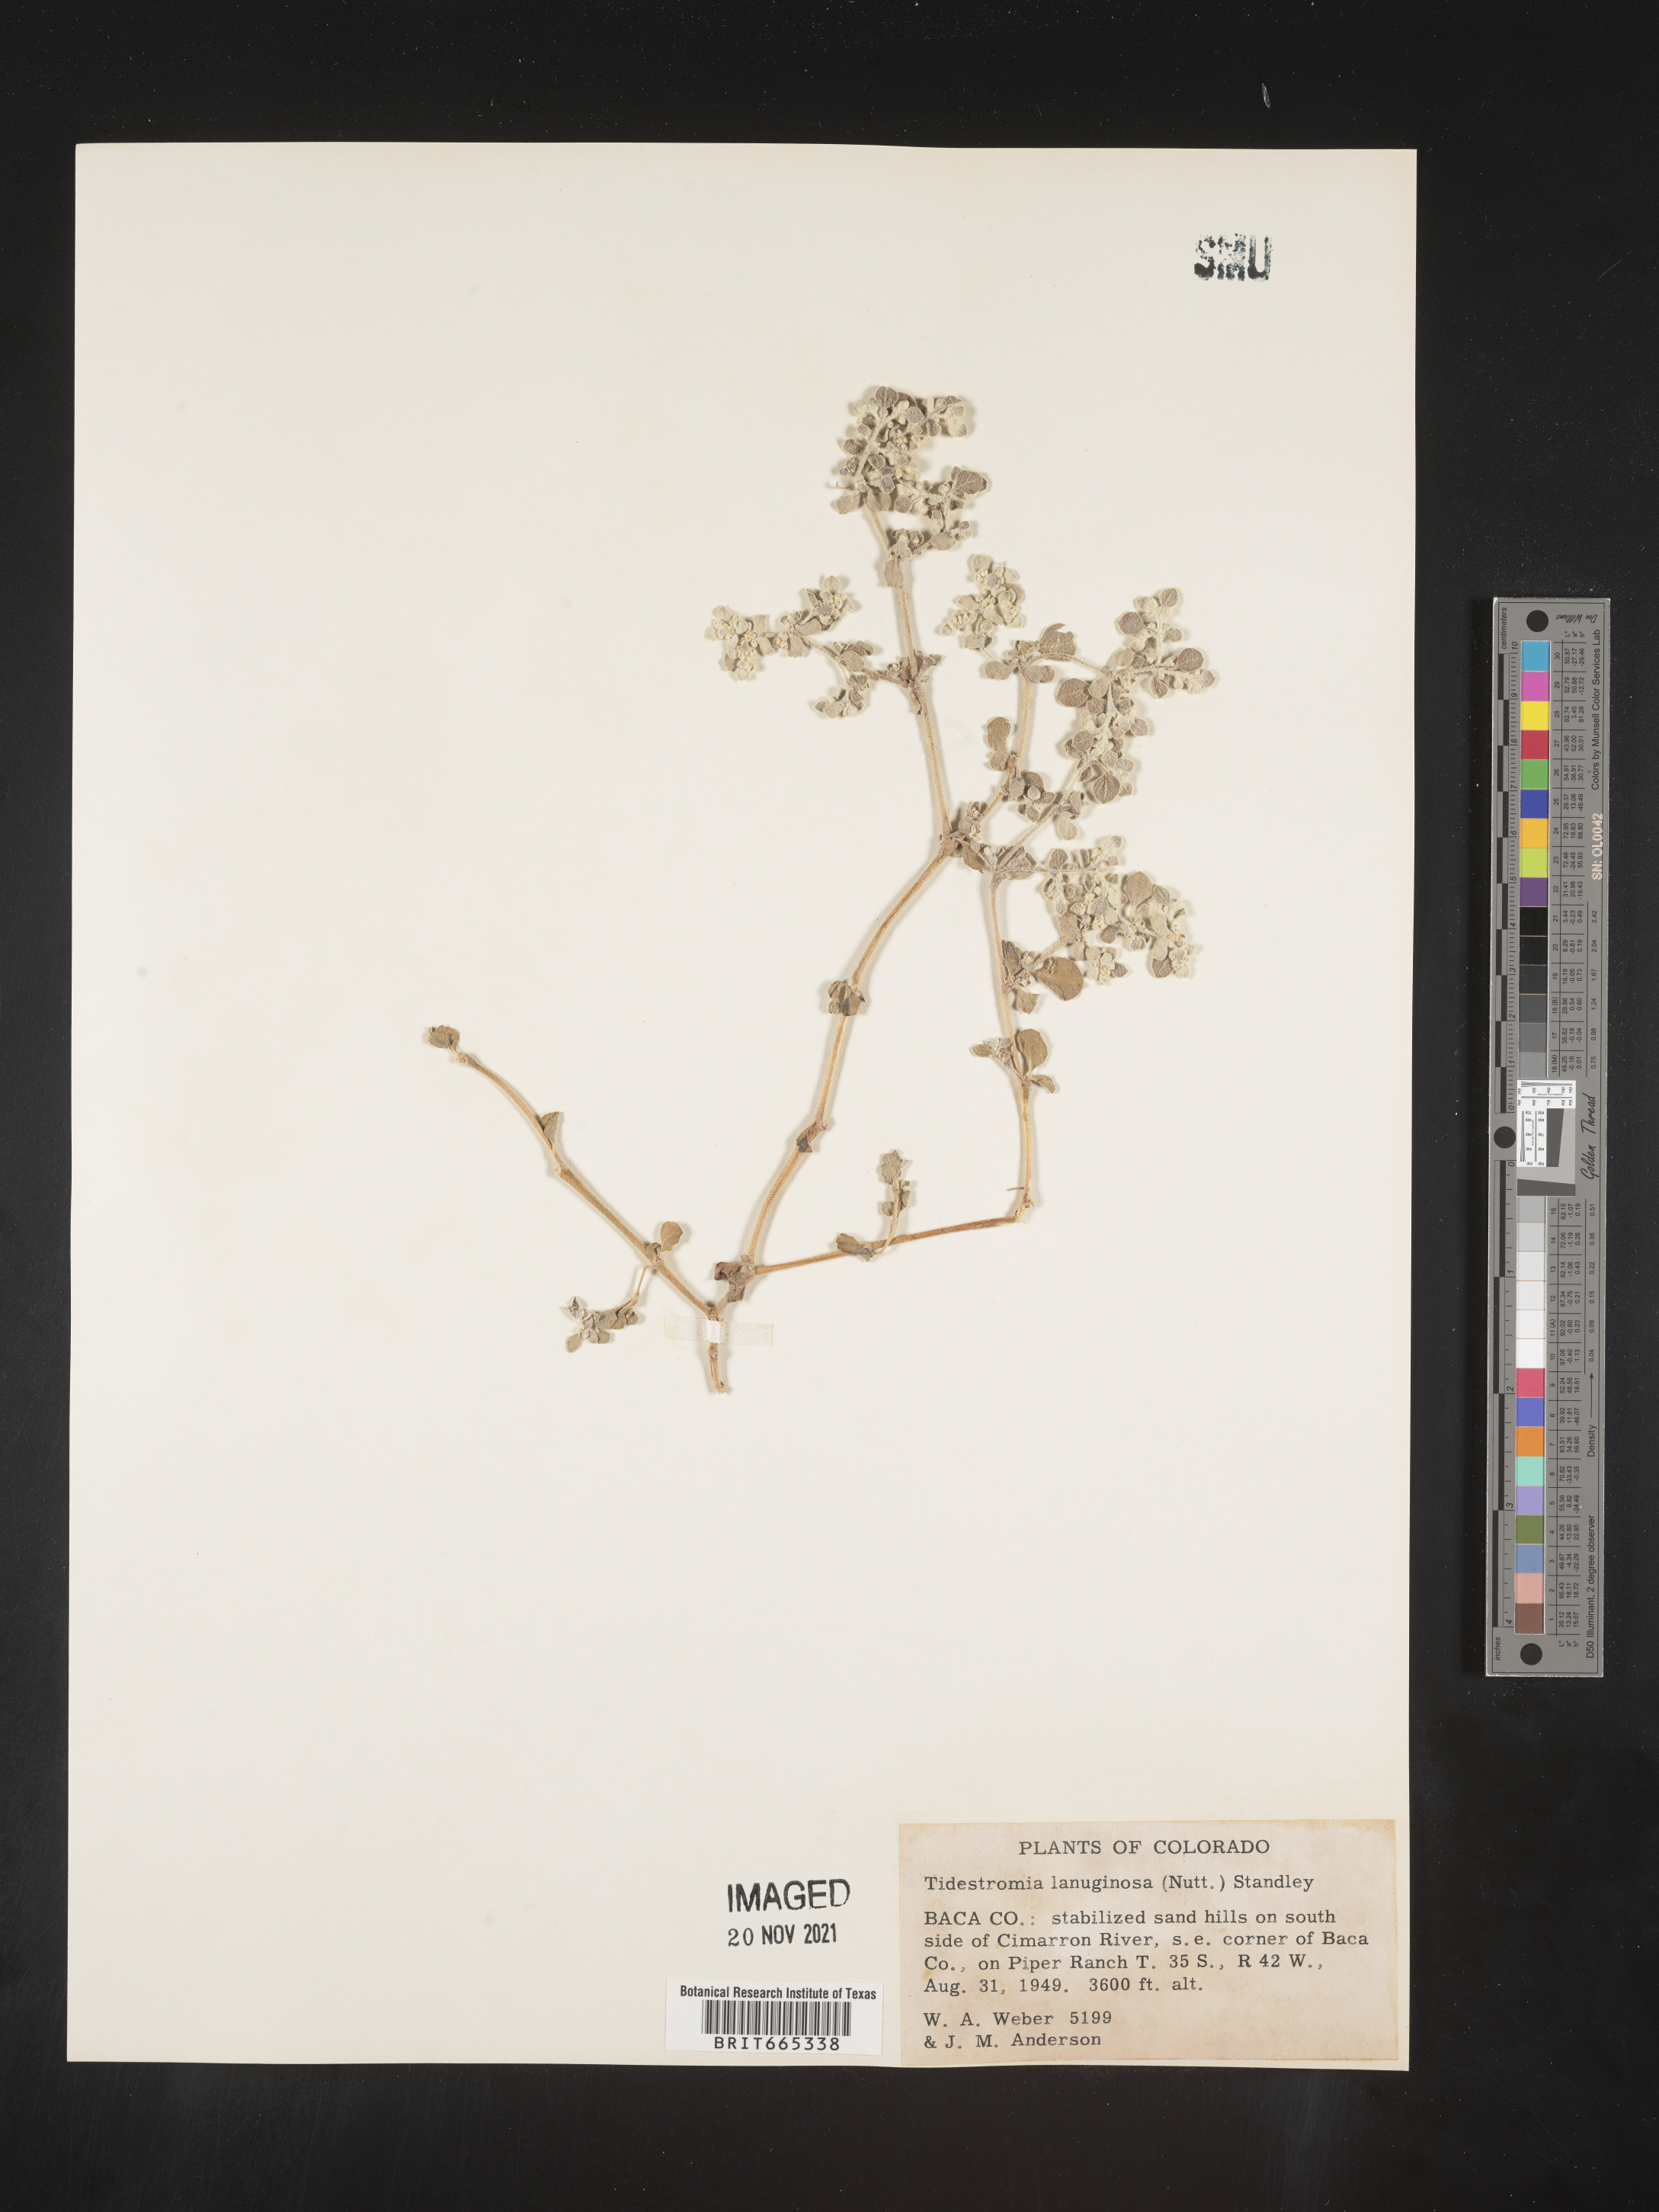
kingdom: Plantae
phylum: Tracheophyta
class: Magnoliopsida
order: Caryophyllales
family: Amaranthaceae
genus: Tidestromia
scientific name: Tidestromia lanuginosa
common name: Woolly tidestromia
